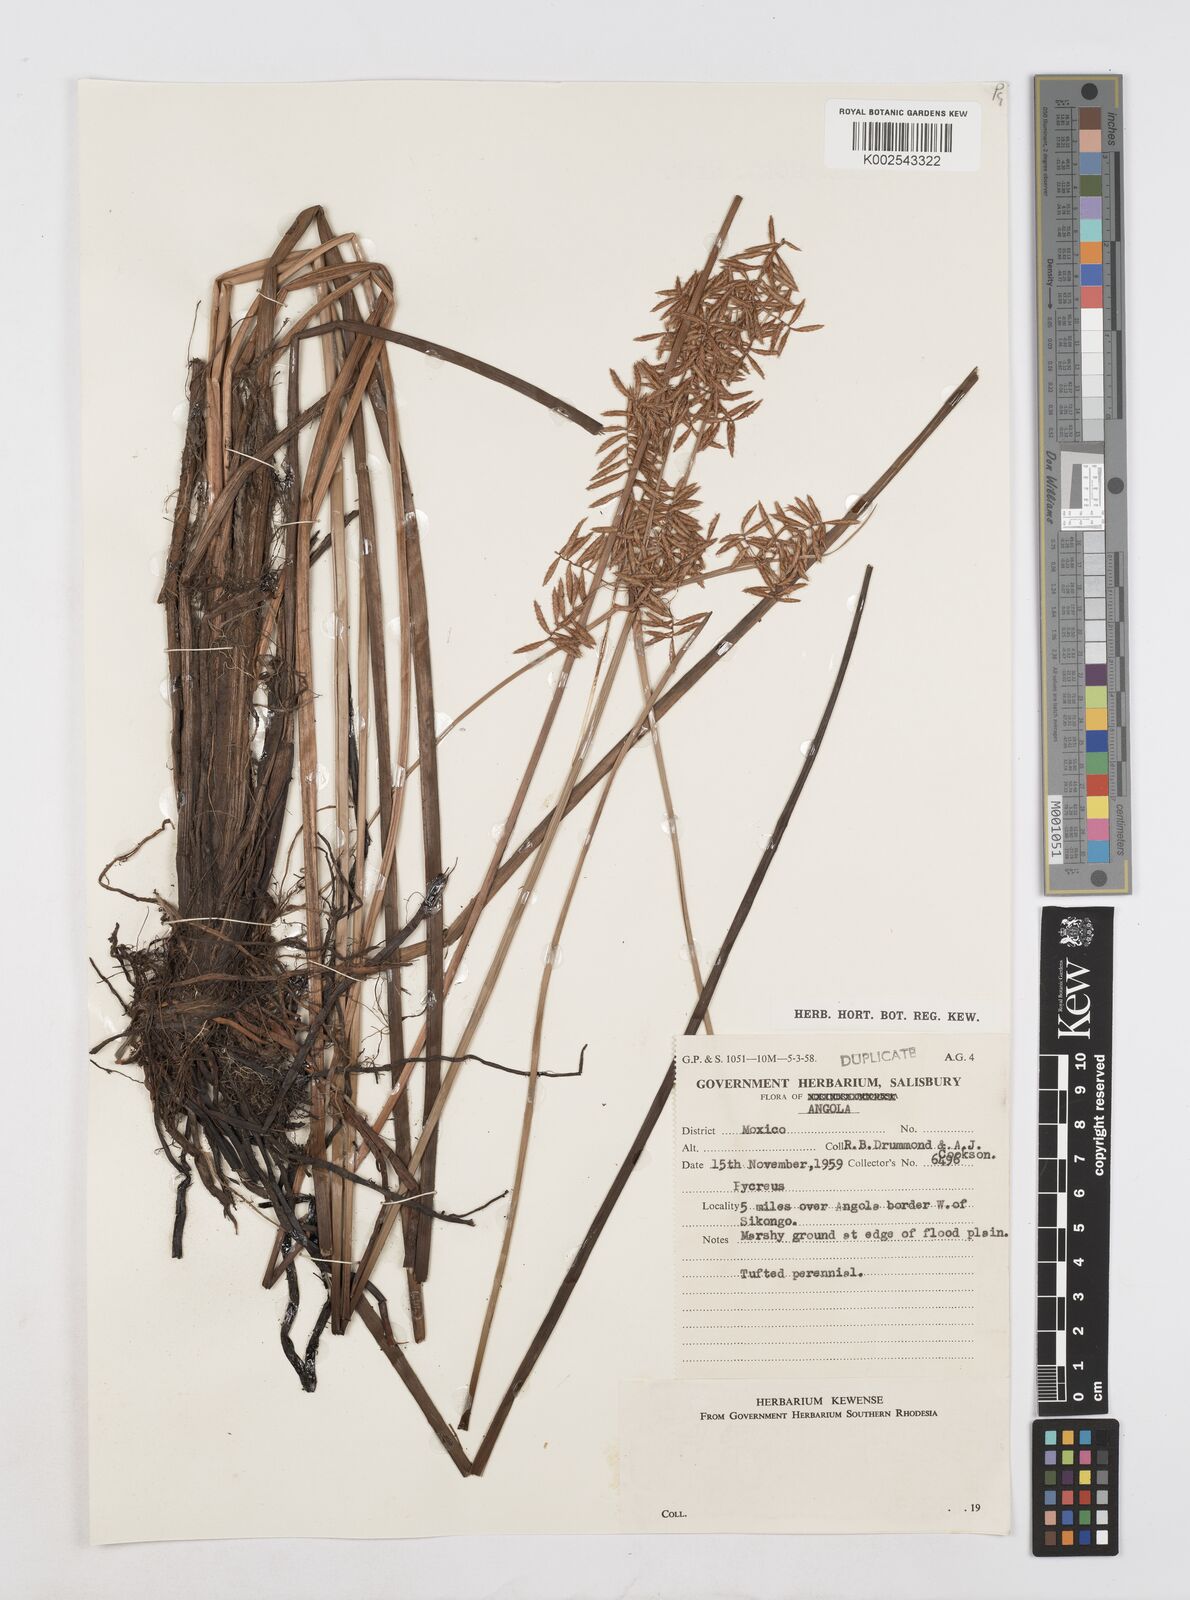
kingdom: Plantae
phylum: Tracheophyta
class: Liliopsida
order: Poales
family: Cyperaceae
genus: Cyperus
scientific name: Cyperus nuerensis
